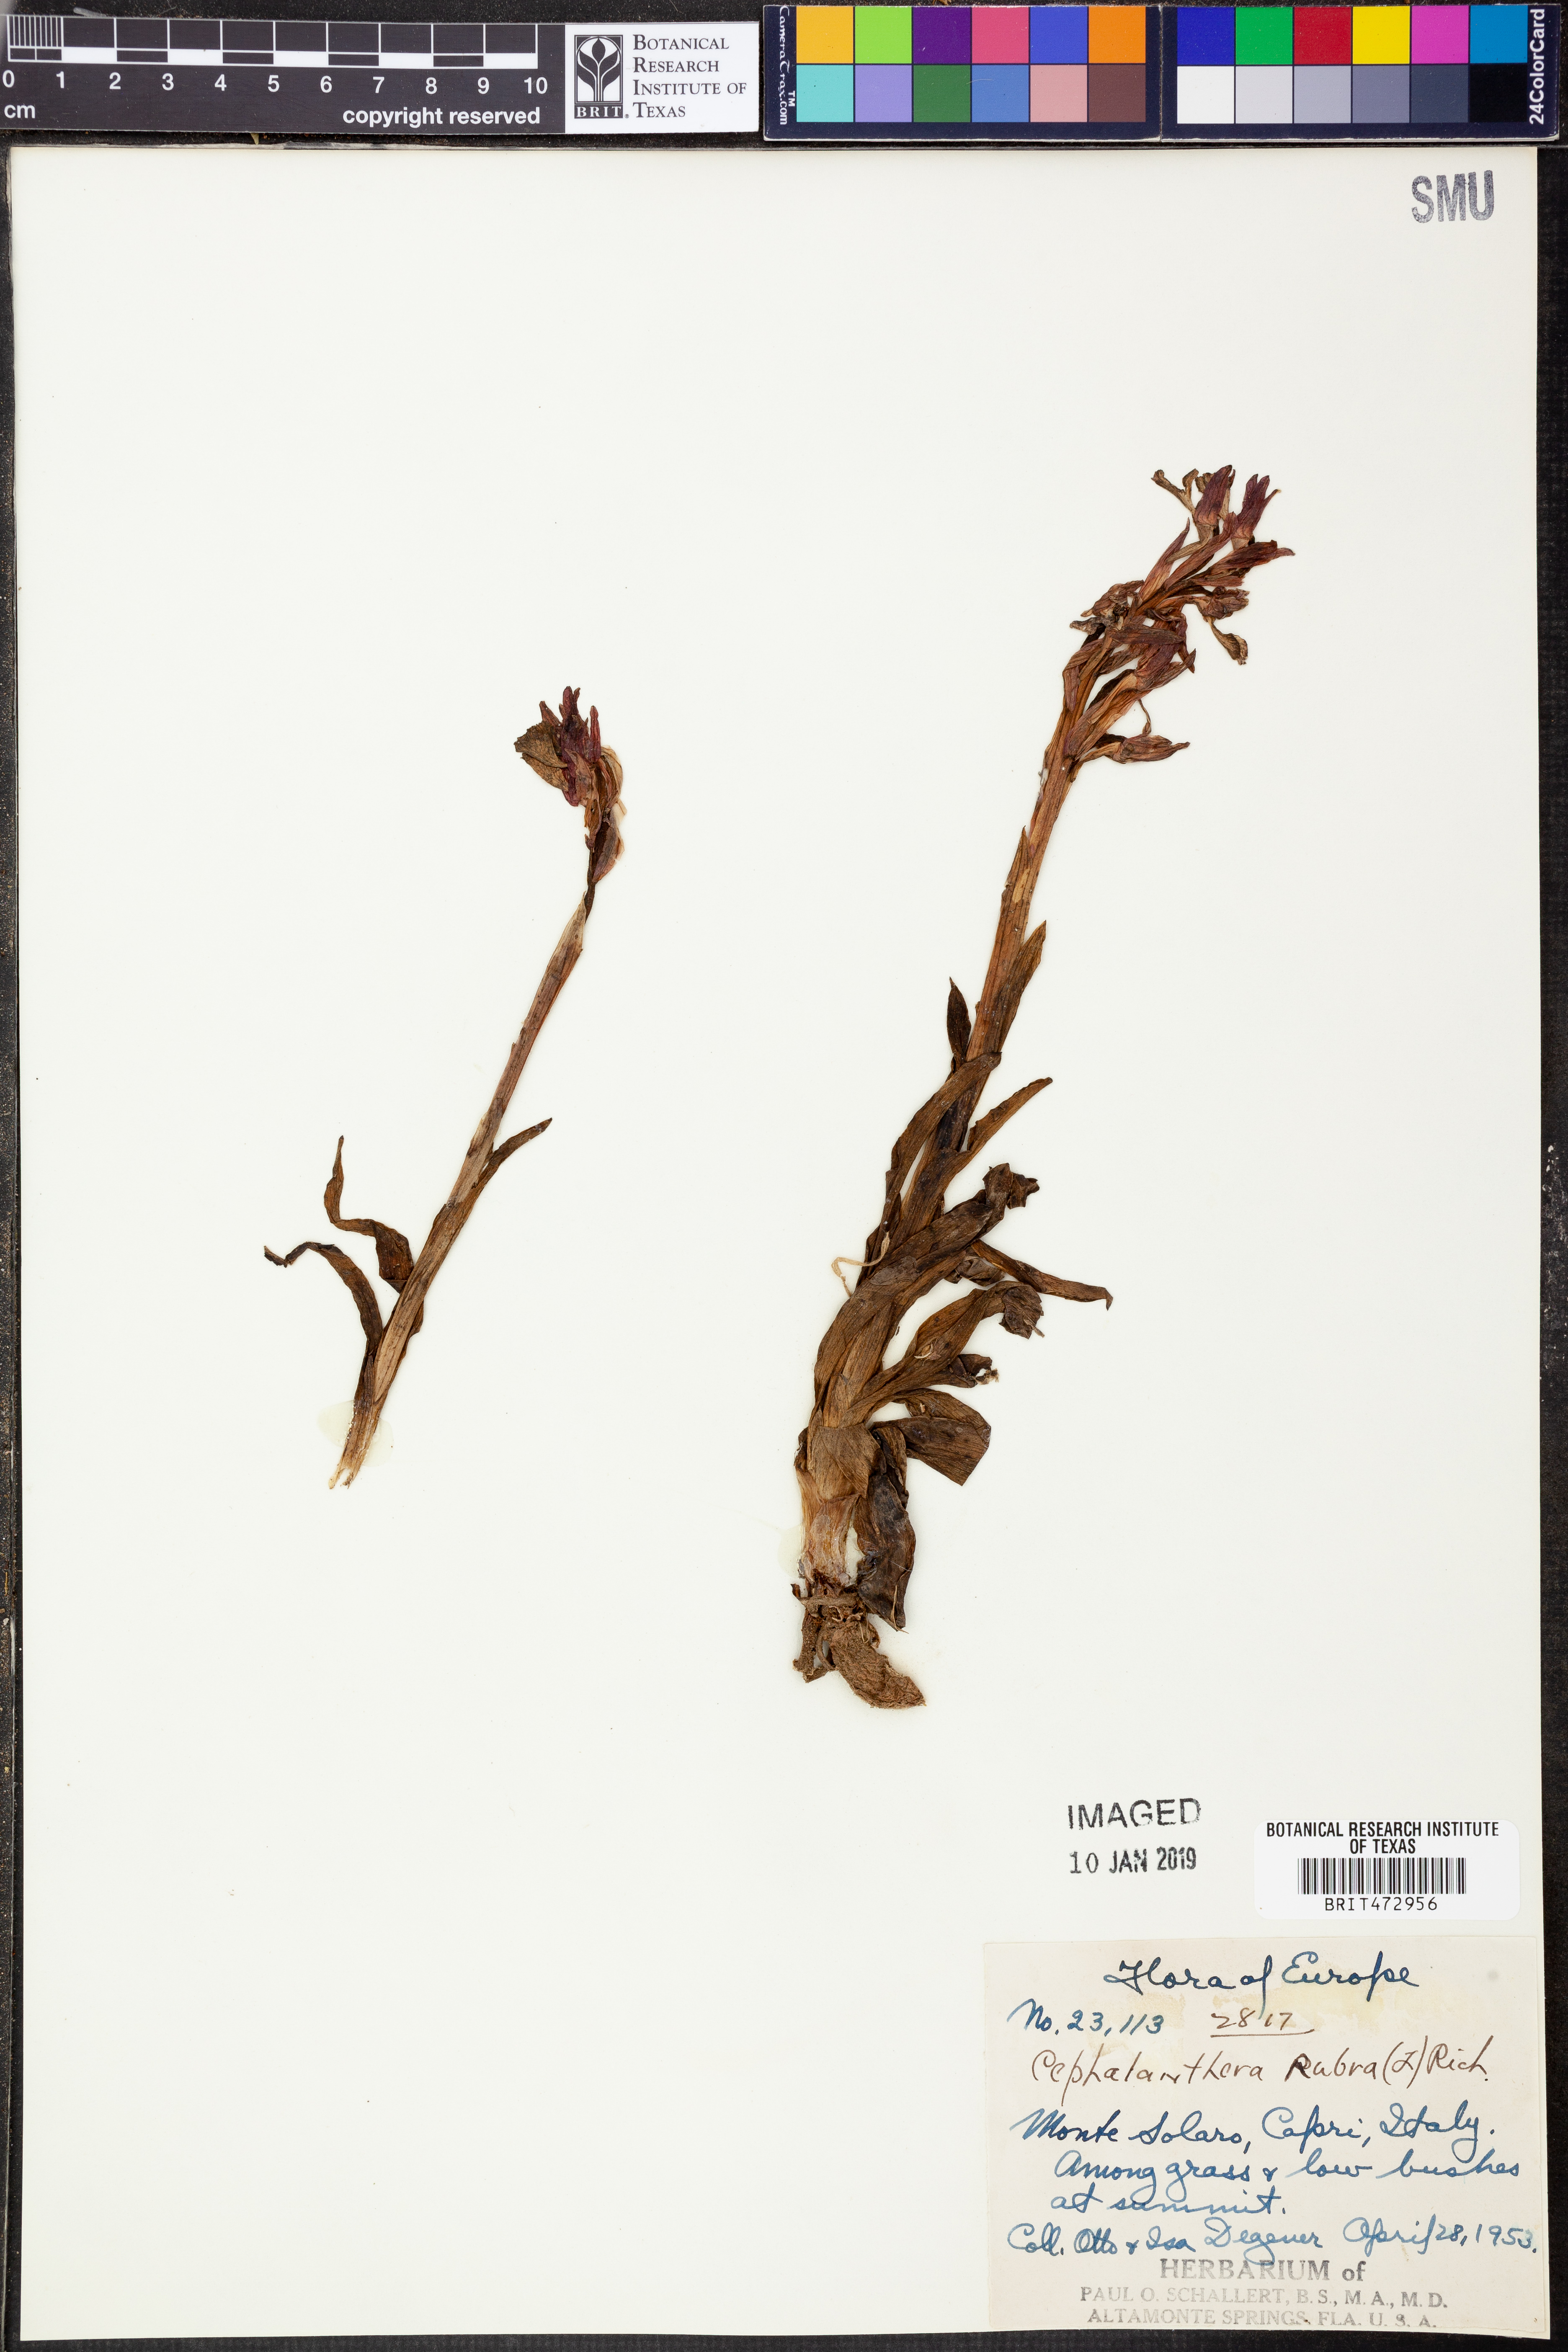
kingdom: Plantae
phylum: Tracheophyta
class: Liliopsida
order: Asparagales
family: Orchidaceae
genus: Cephalanthera
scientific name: Cephalanthera rubra
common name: Red helleborine
